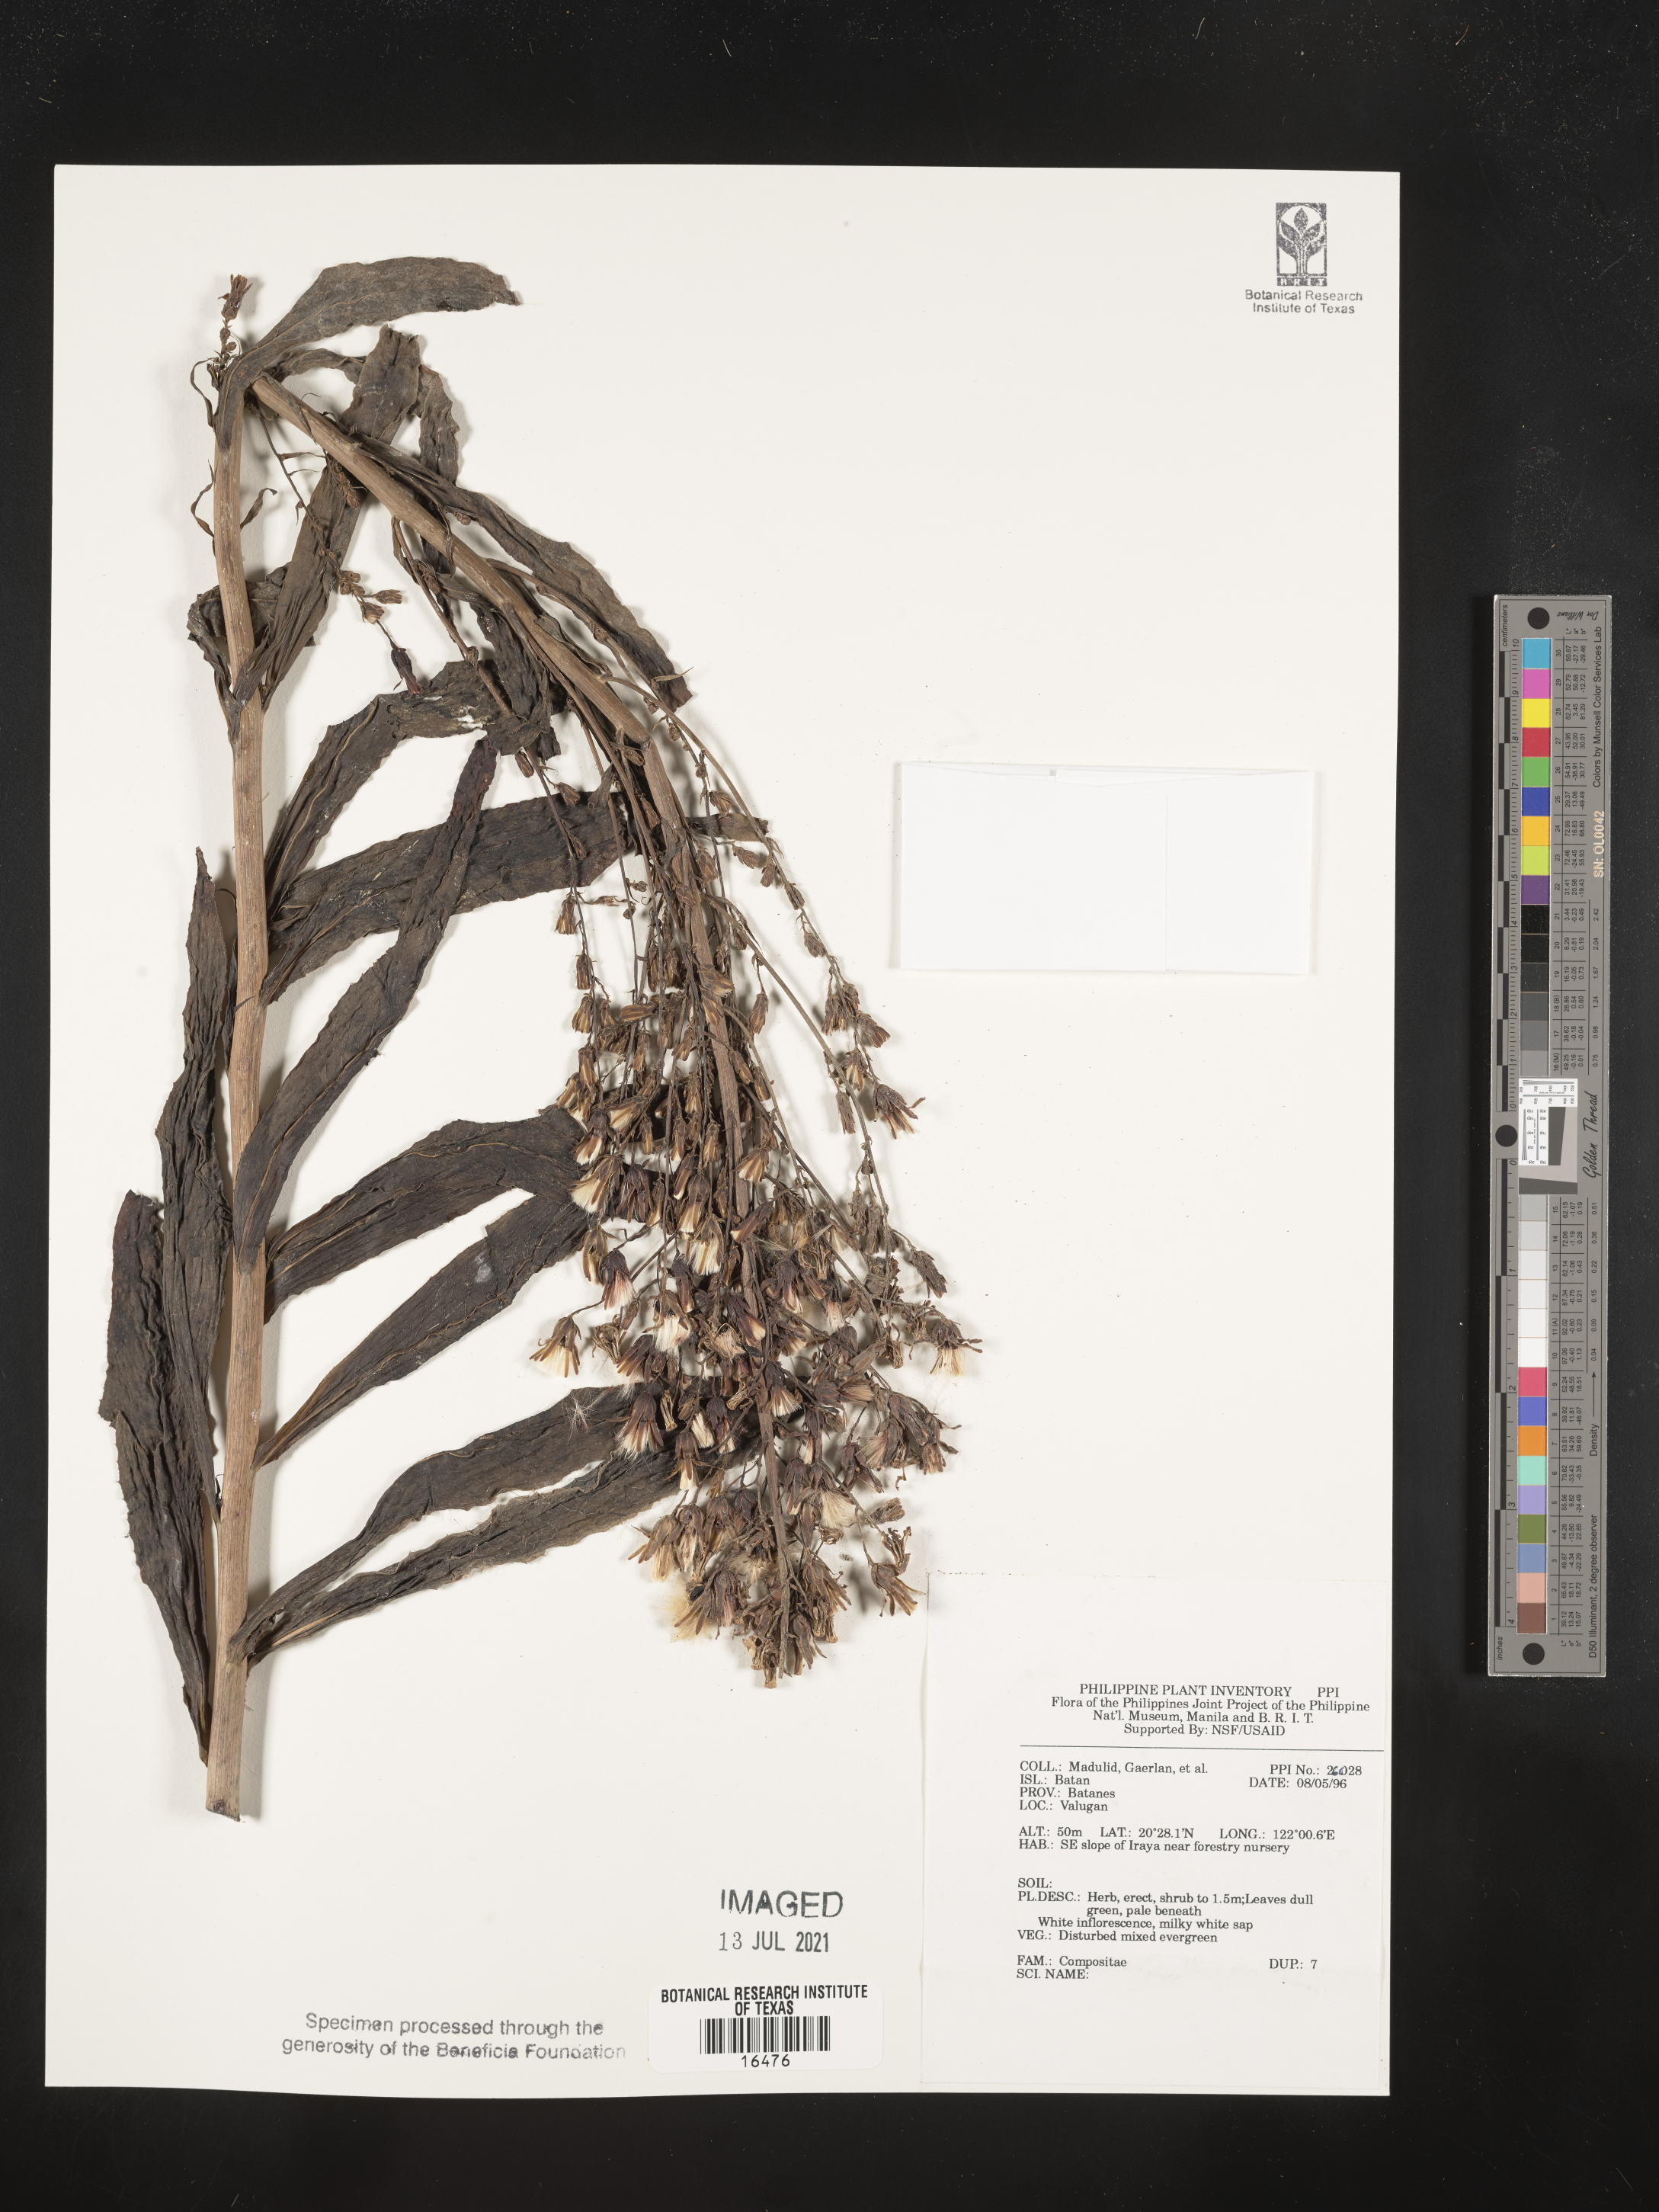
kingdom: Plantae
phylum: Tracheophyta
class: Magnoliopsida
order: Asterales
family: Asteraceae
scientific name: Asteraceae
